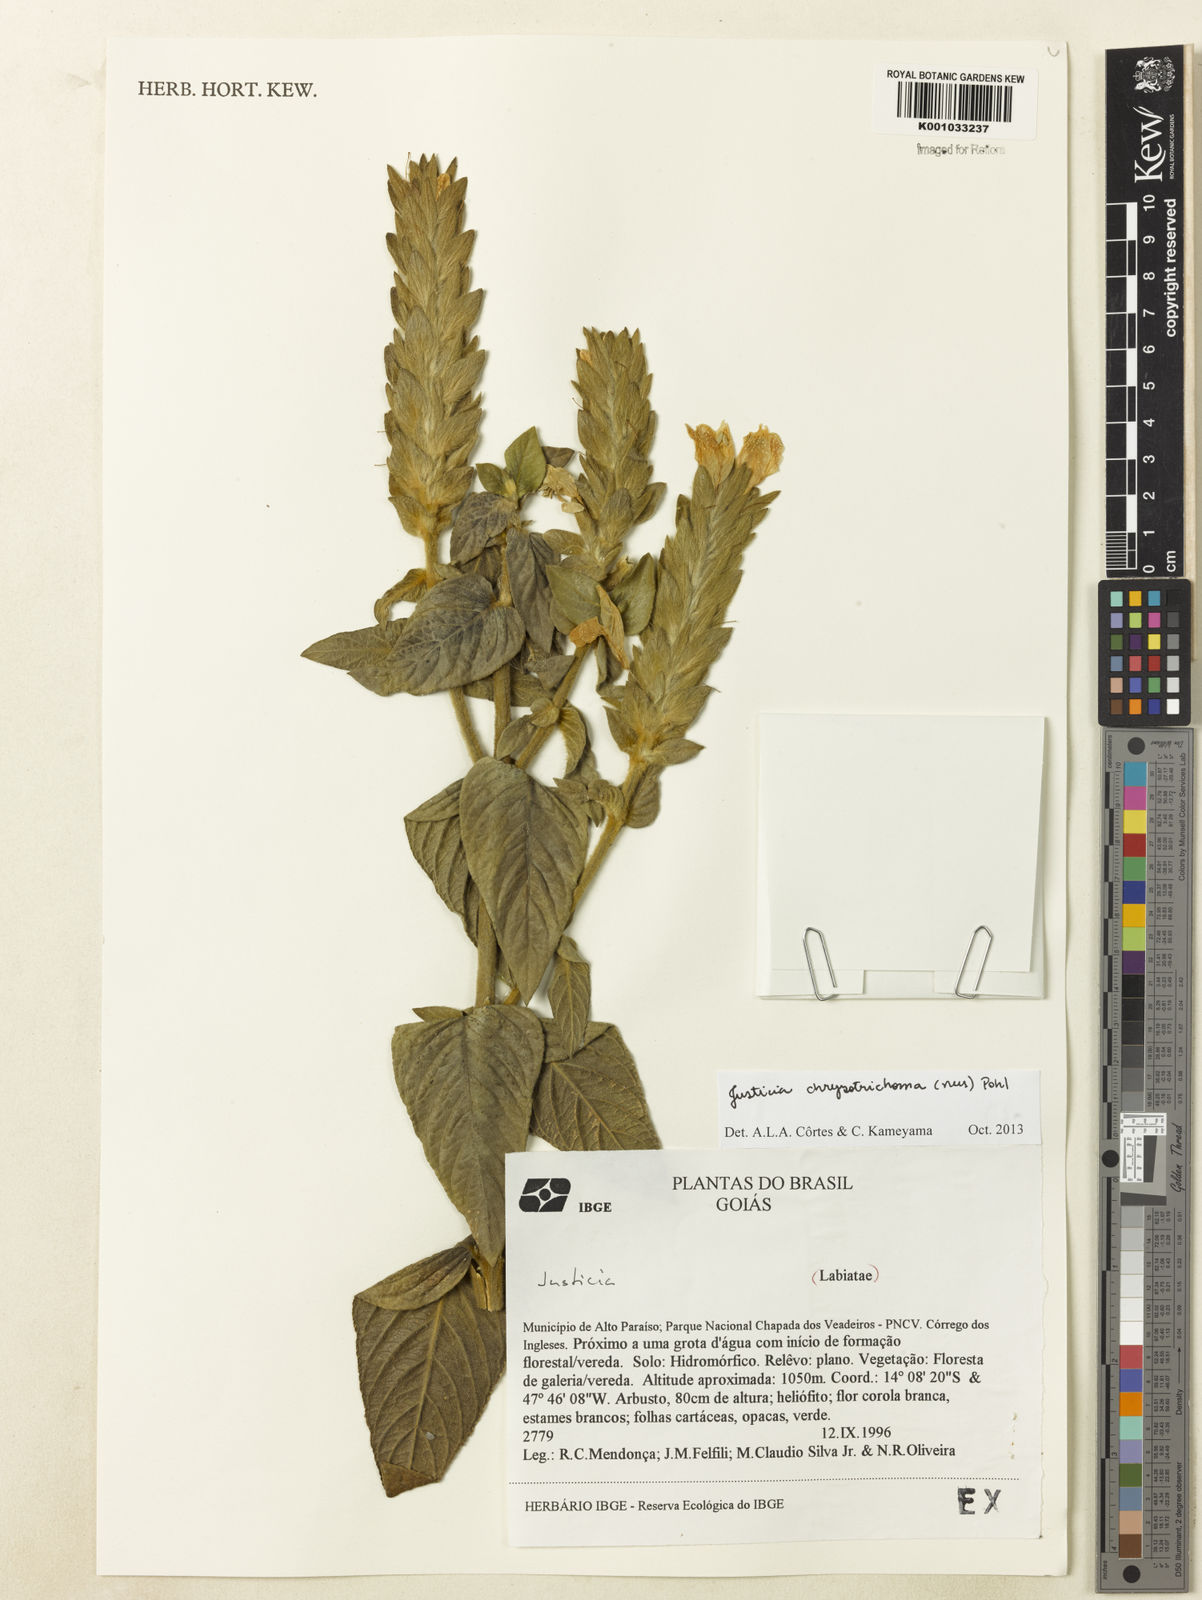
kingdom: Plantae
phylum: Tracheophyta
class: Magnoliopsida
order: Lamiales
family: Acanthaceae
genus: Justicia
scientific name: Justicia chrysotrichoma
